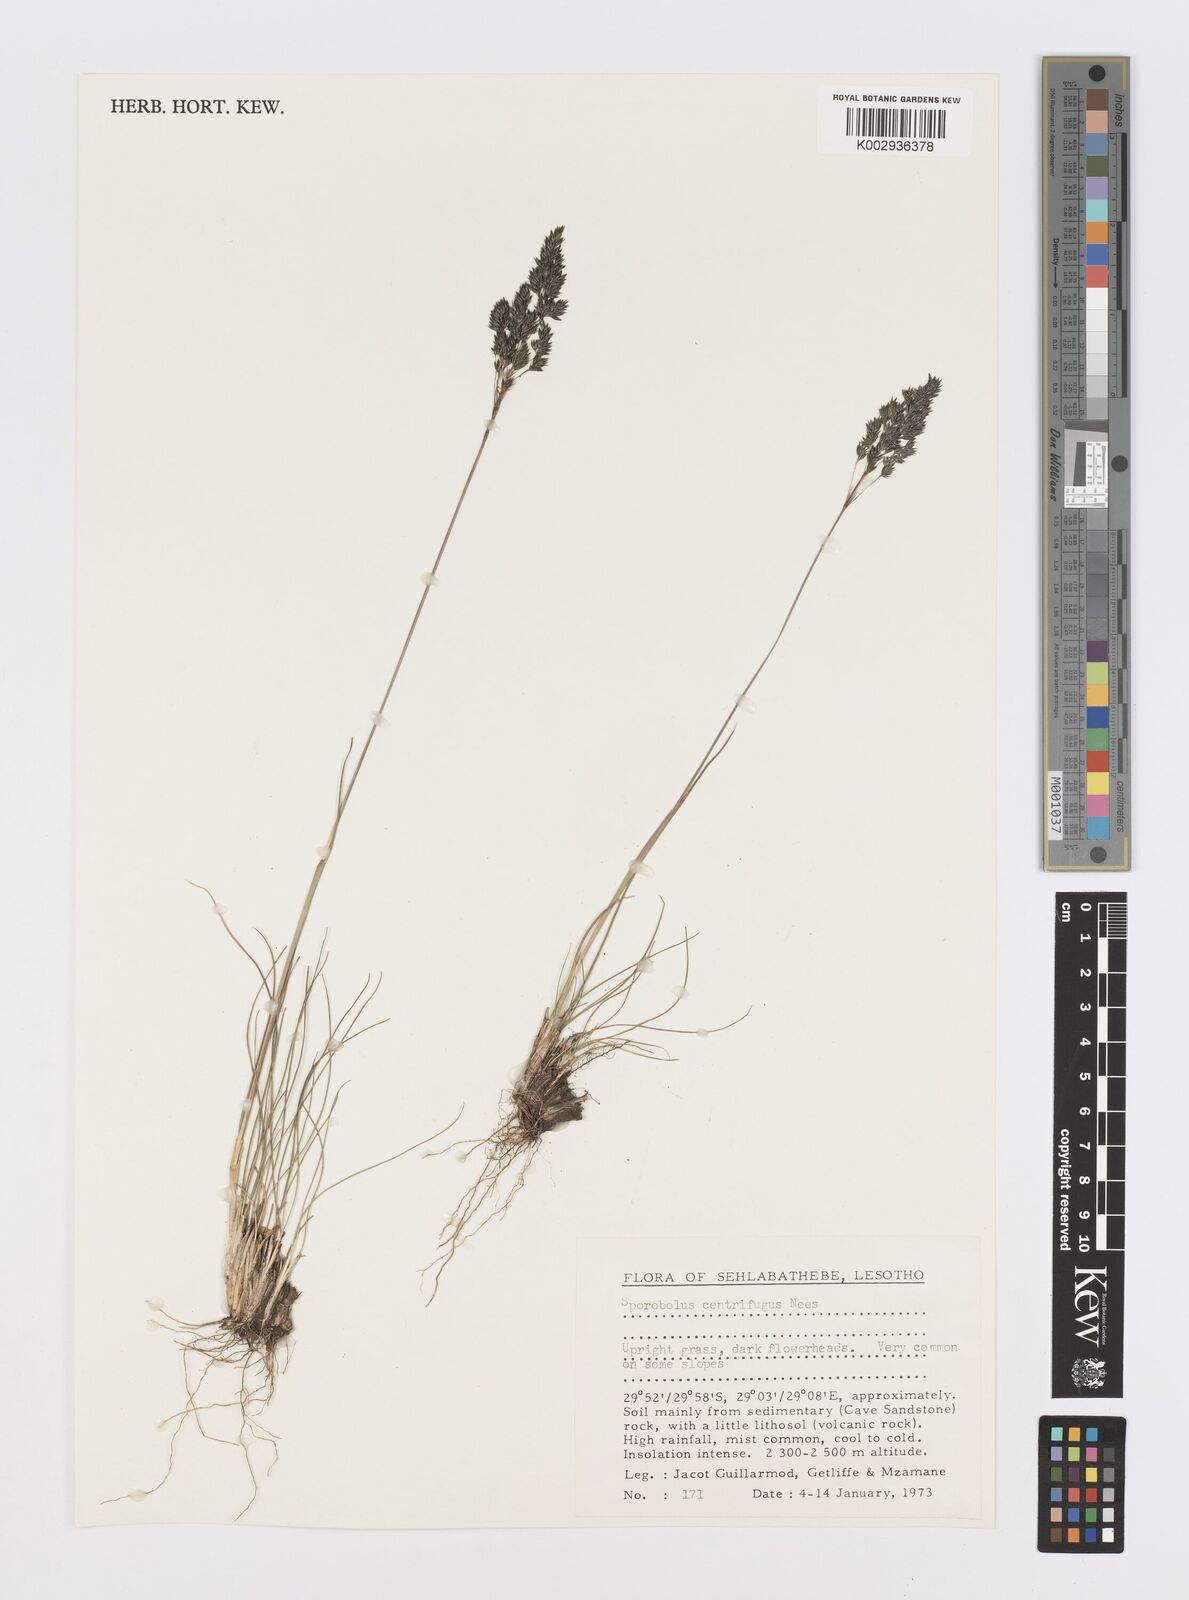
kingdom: Plantae
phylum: Tracheophyta
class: Liliopsida
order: Poales
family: Poaceae
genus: Sporobolus
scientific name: Sporobolus centrifugus
